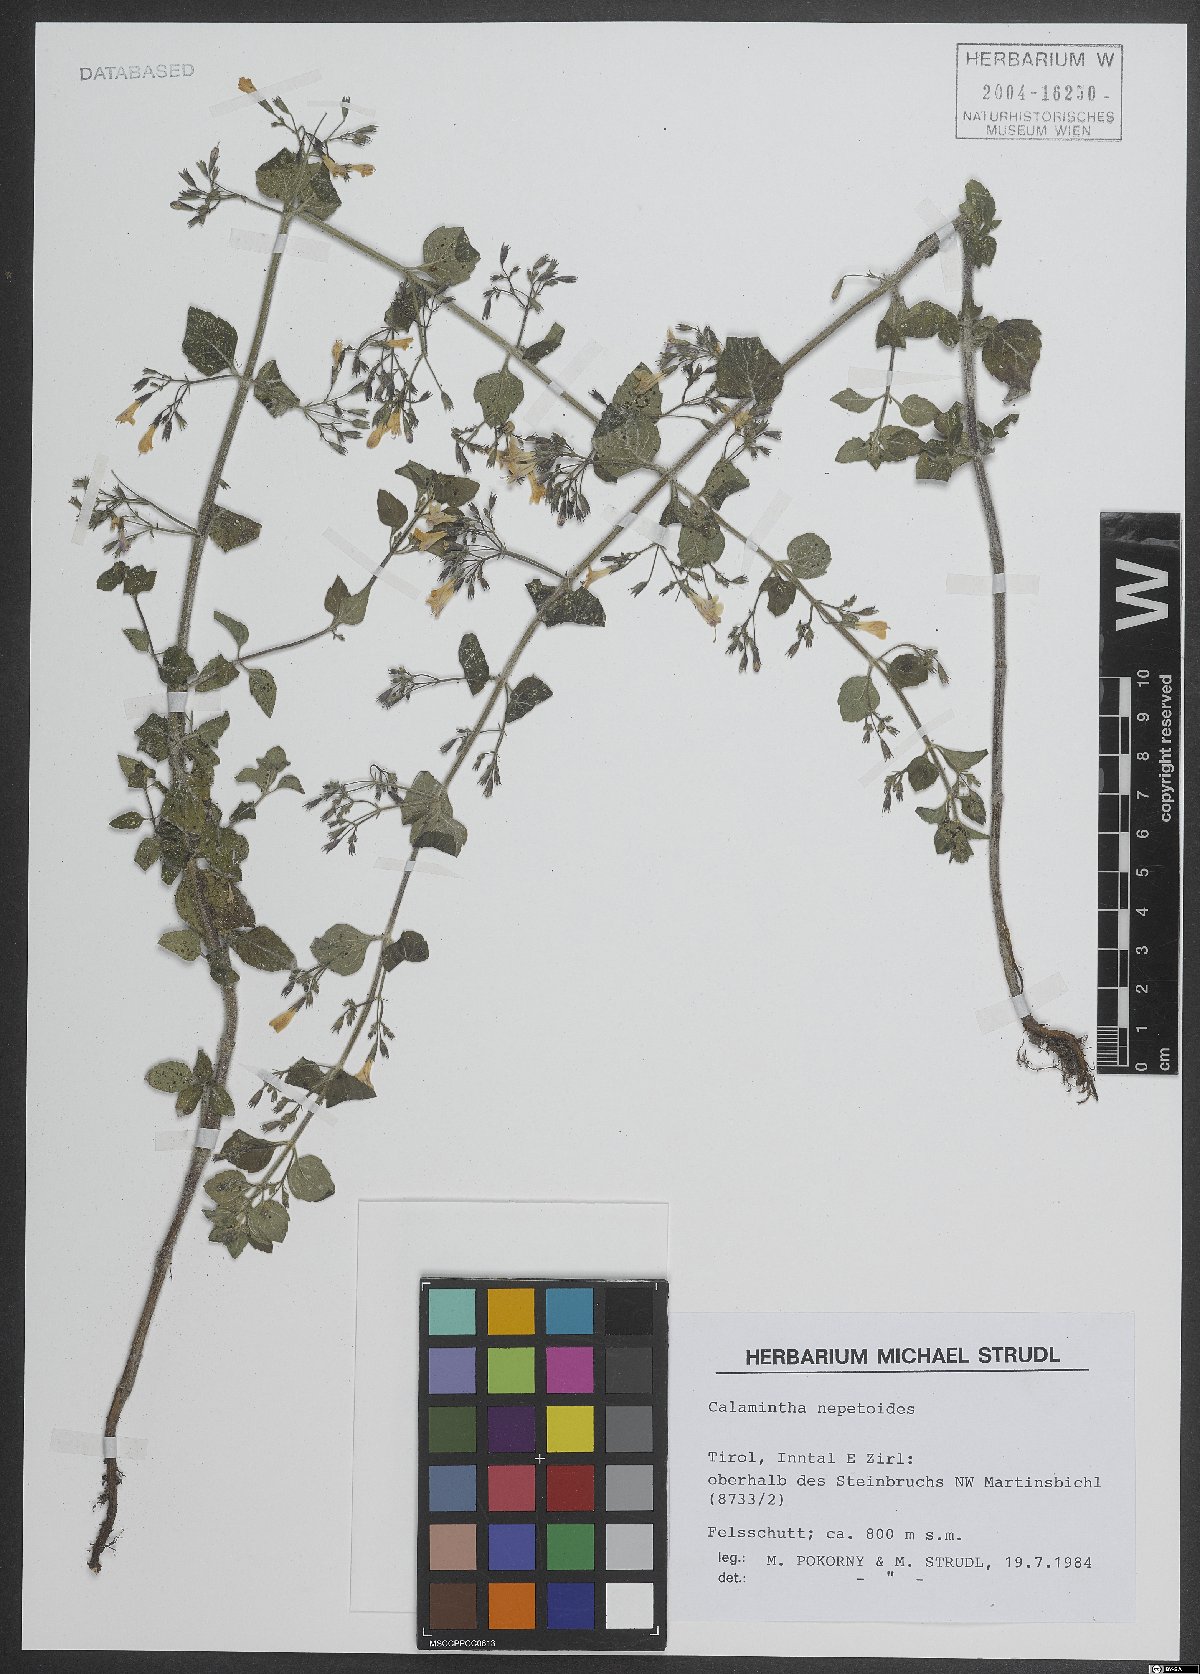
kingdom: Plantae
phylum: Tracheophyta
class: Magnoliopsida
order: Lamiales
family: Lamiaceae
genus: Clinopodium
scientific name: Clinopodium nepeta
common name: Lesser calamint
